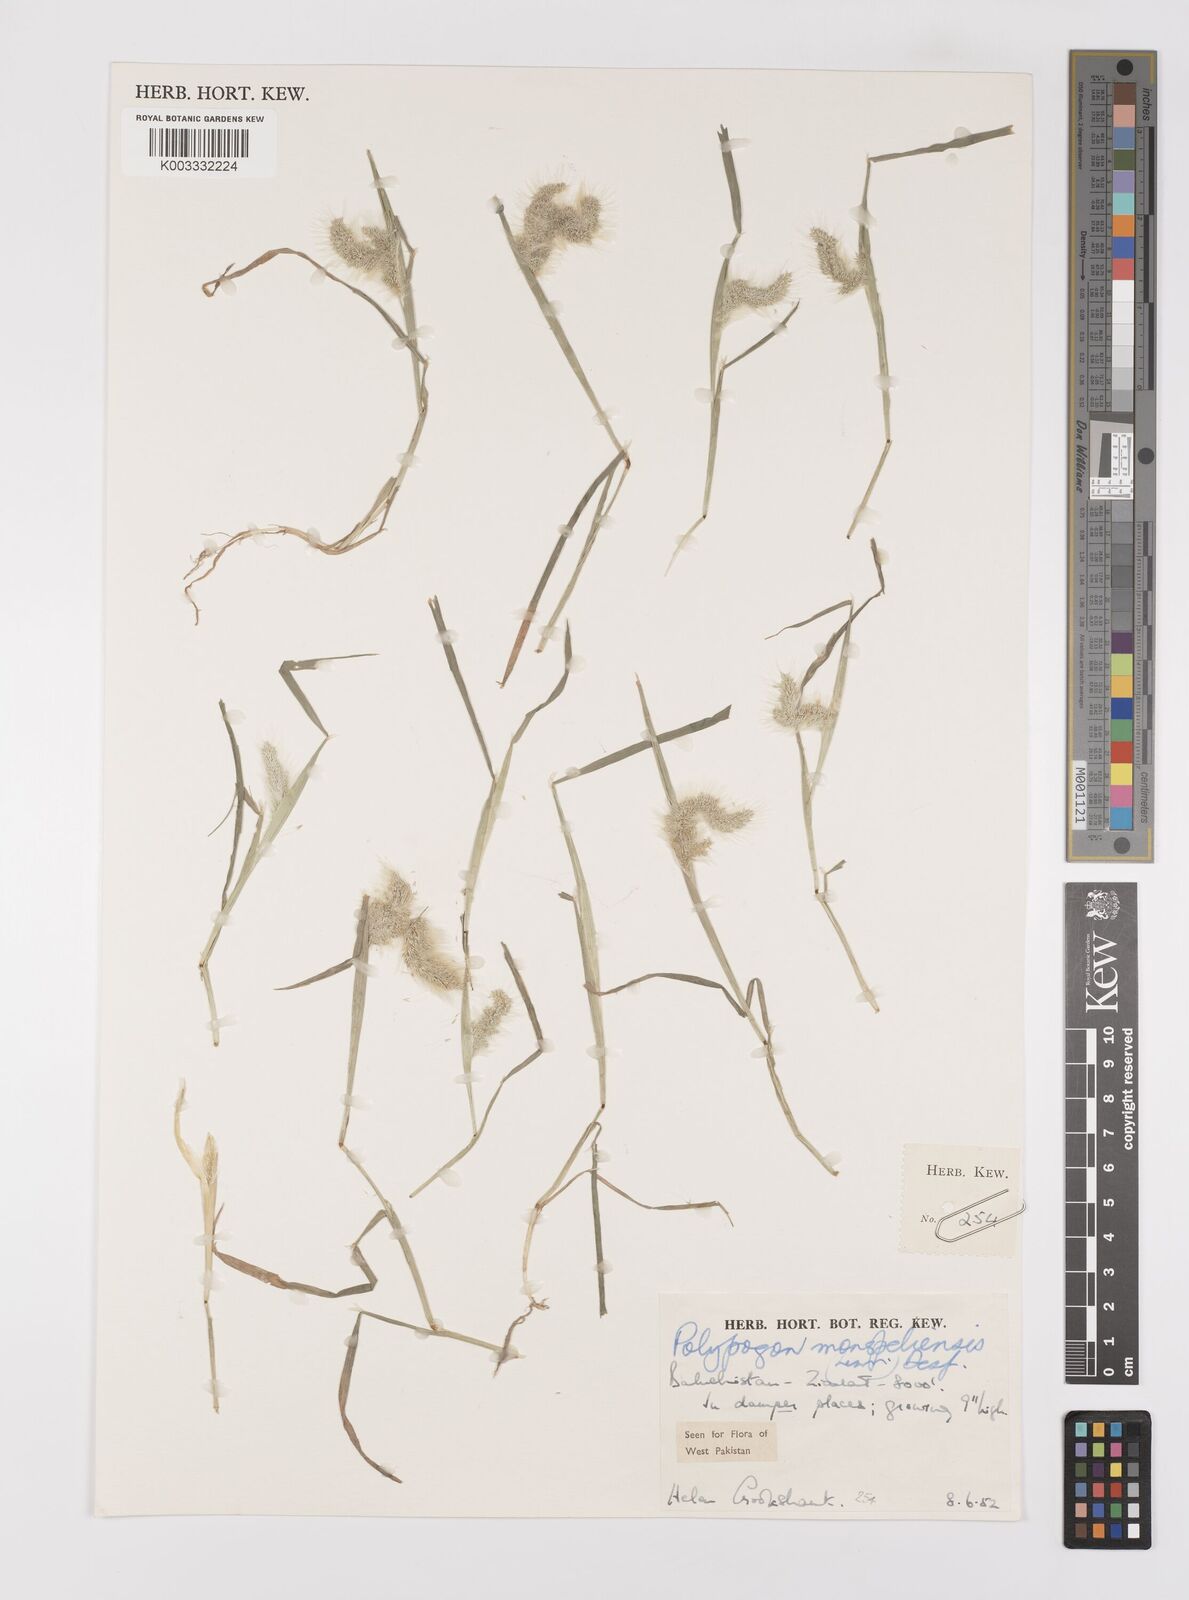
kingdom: Plantae
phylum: Tracheophyta
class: Liliopsida
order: Poales
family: Poaceae
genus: Polypogon
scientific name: Polypogon monspeliensis
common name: Annual rabbitsfoot grass
